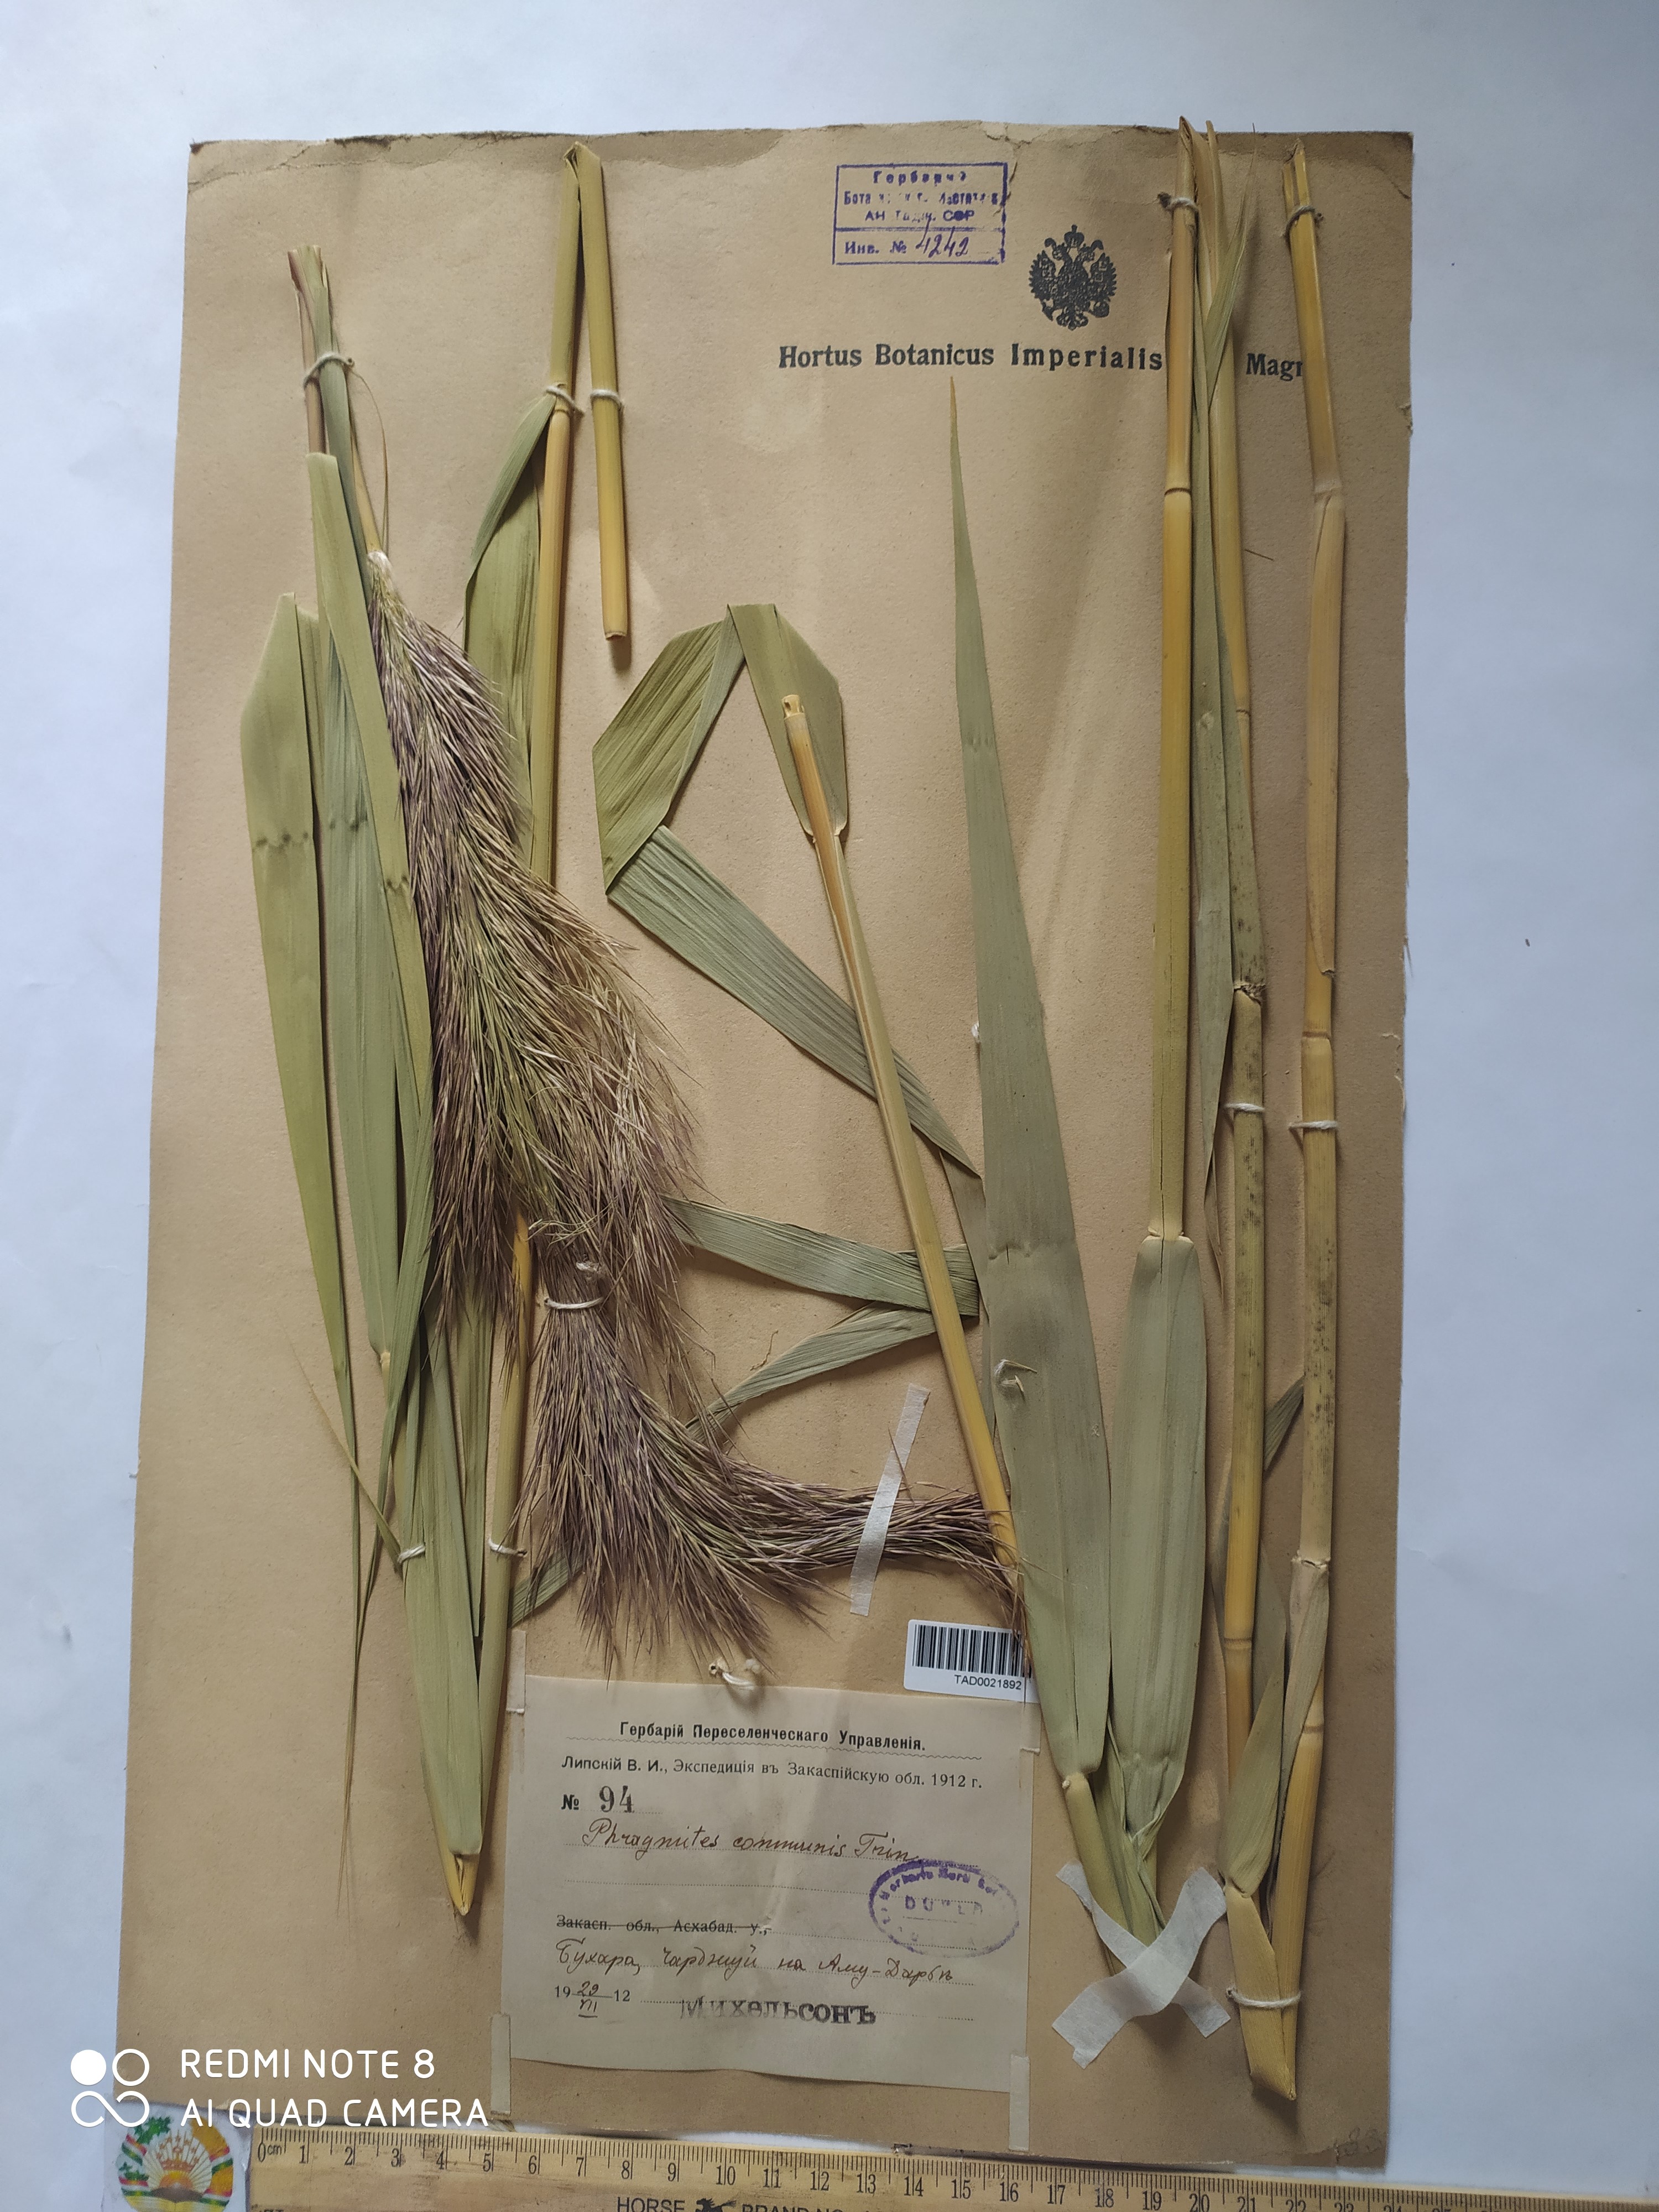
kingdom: Plantae
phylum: Tracheophyta
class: Liliopsida
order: Poales
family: Poaceae
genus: Phragmites
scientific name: Phragmites australis
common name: Common reed
